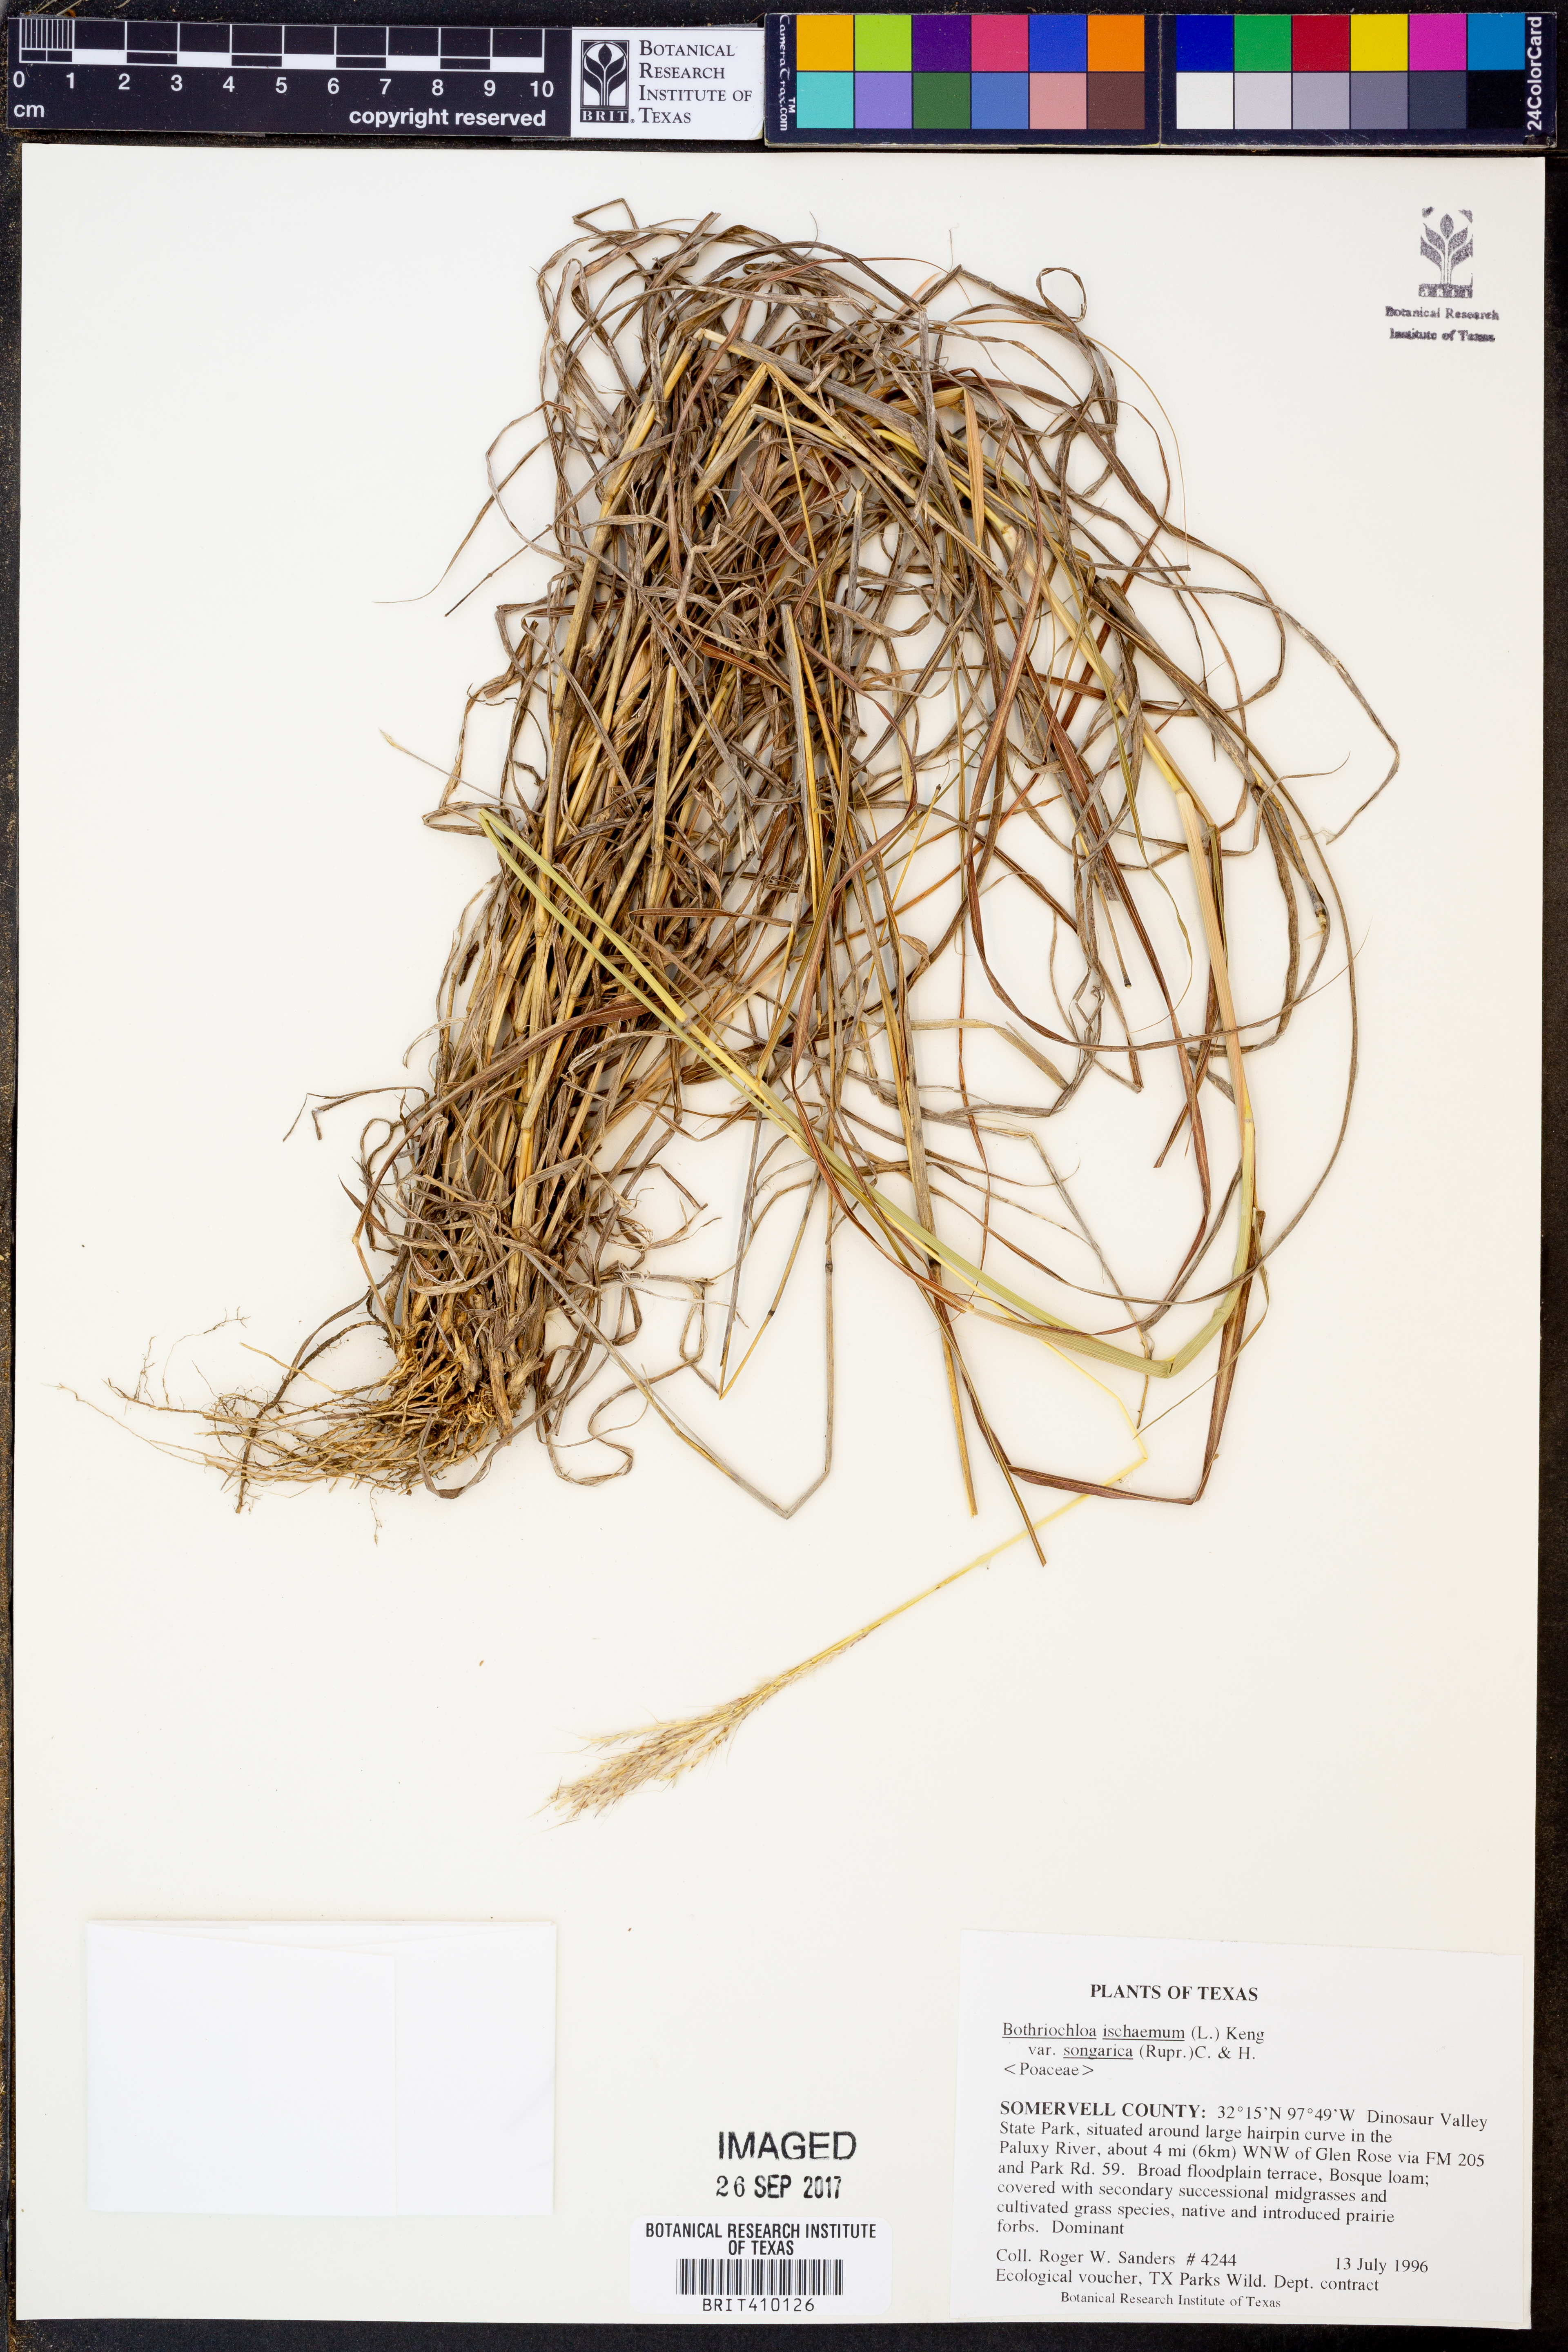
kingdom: Plantae
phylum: Tracheophyta
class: Liliopsida
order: Poales
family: Poaceae
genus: Bothriochloa
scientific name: Bothriochloa ischaemum
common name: Yellow bluestem
